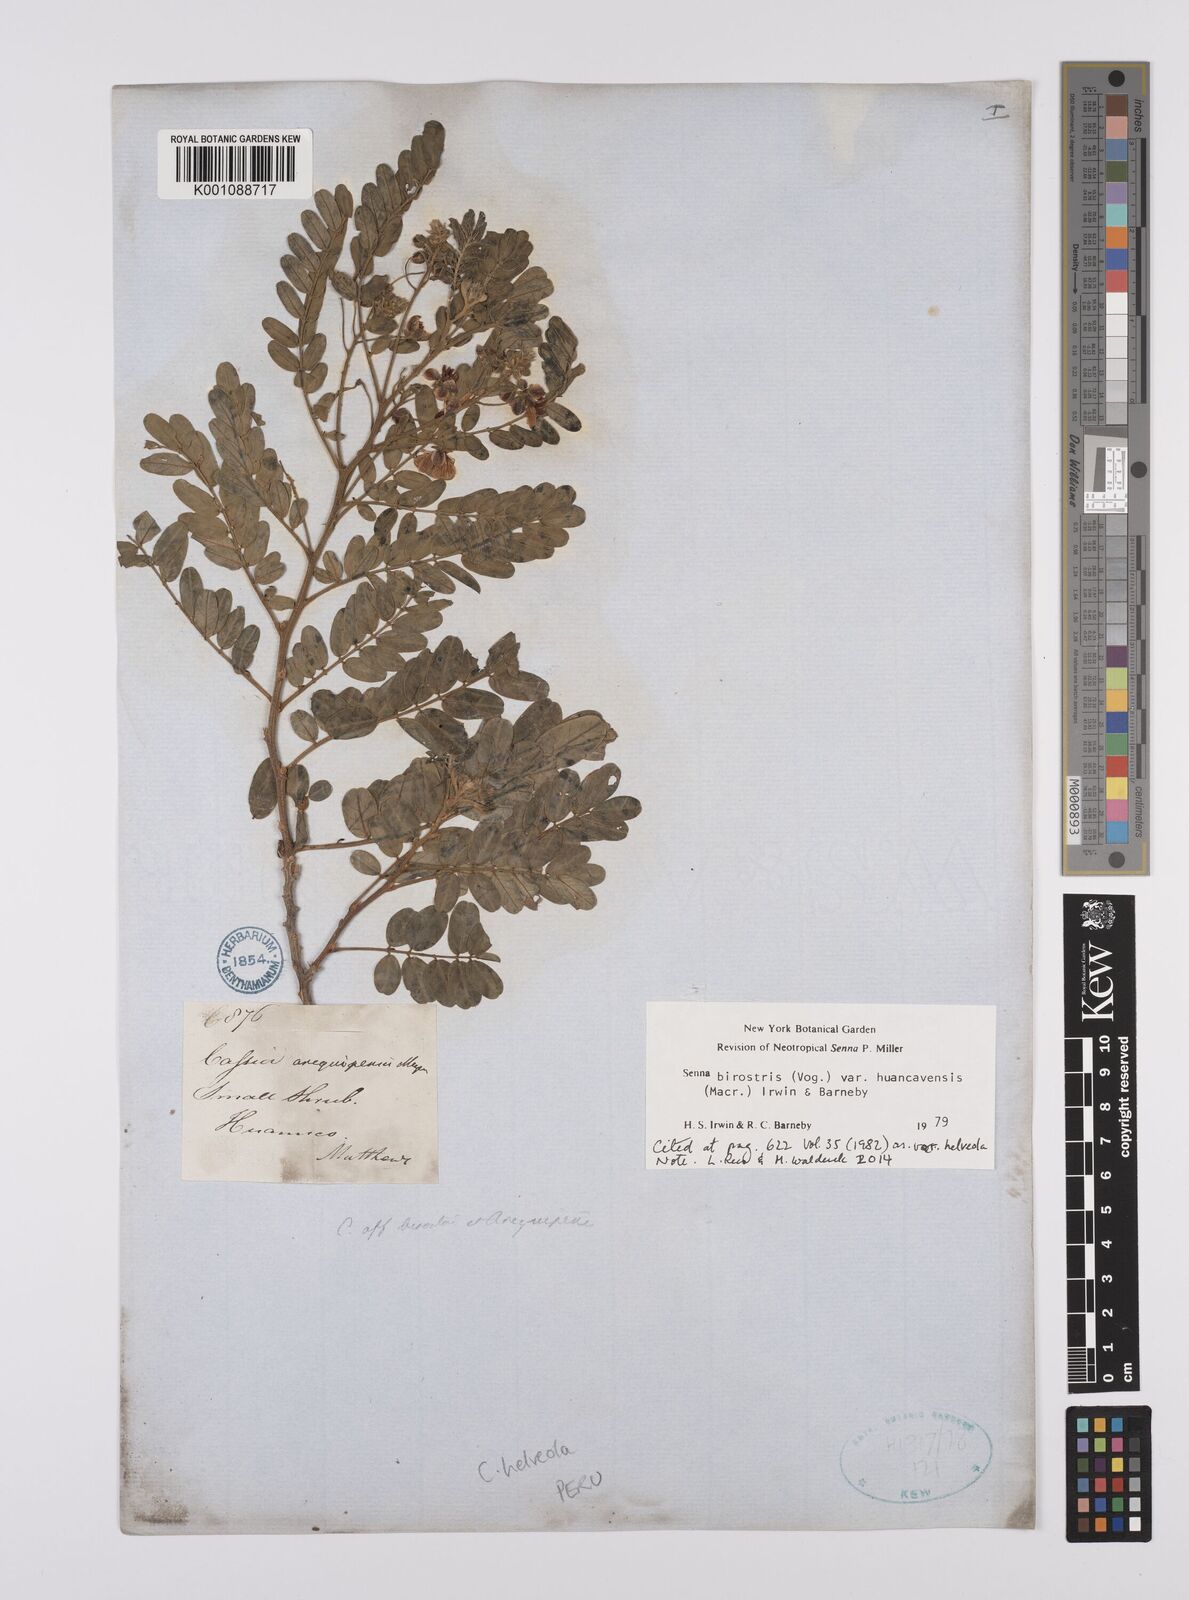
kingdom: Plantae
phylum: Tracheophyta
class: Magnoliopsida
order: Fabales
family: Fabaceae
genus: Senna
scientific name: Senna birostris
